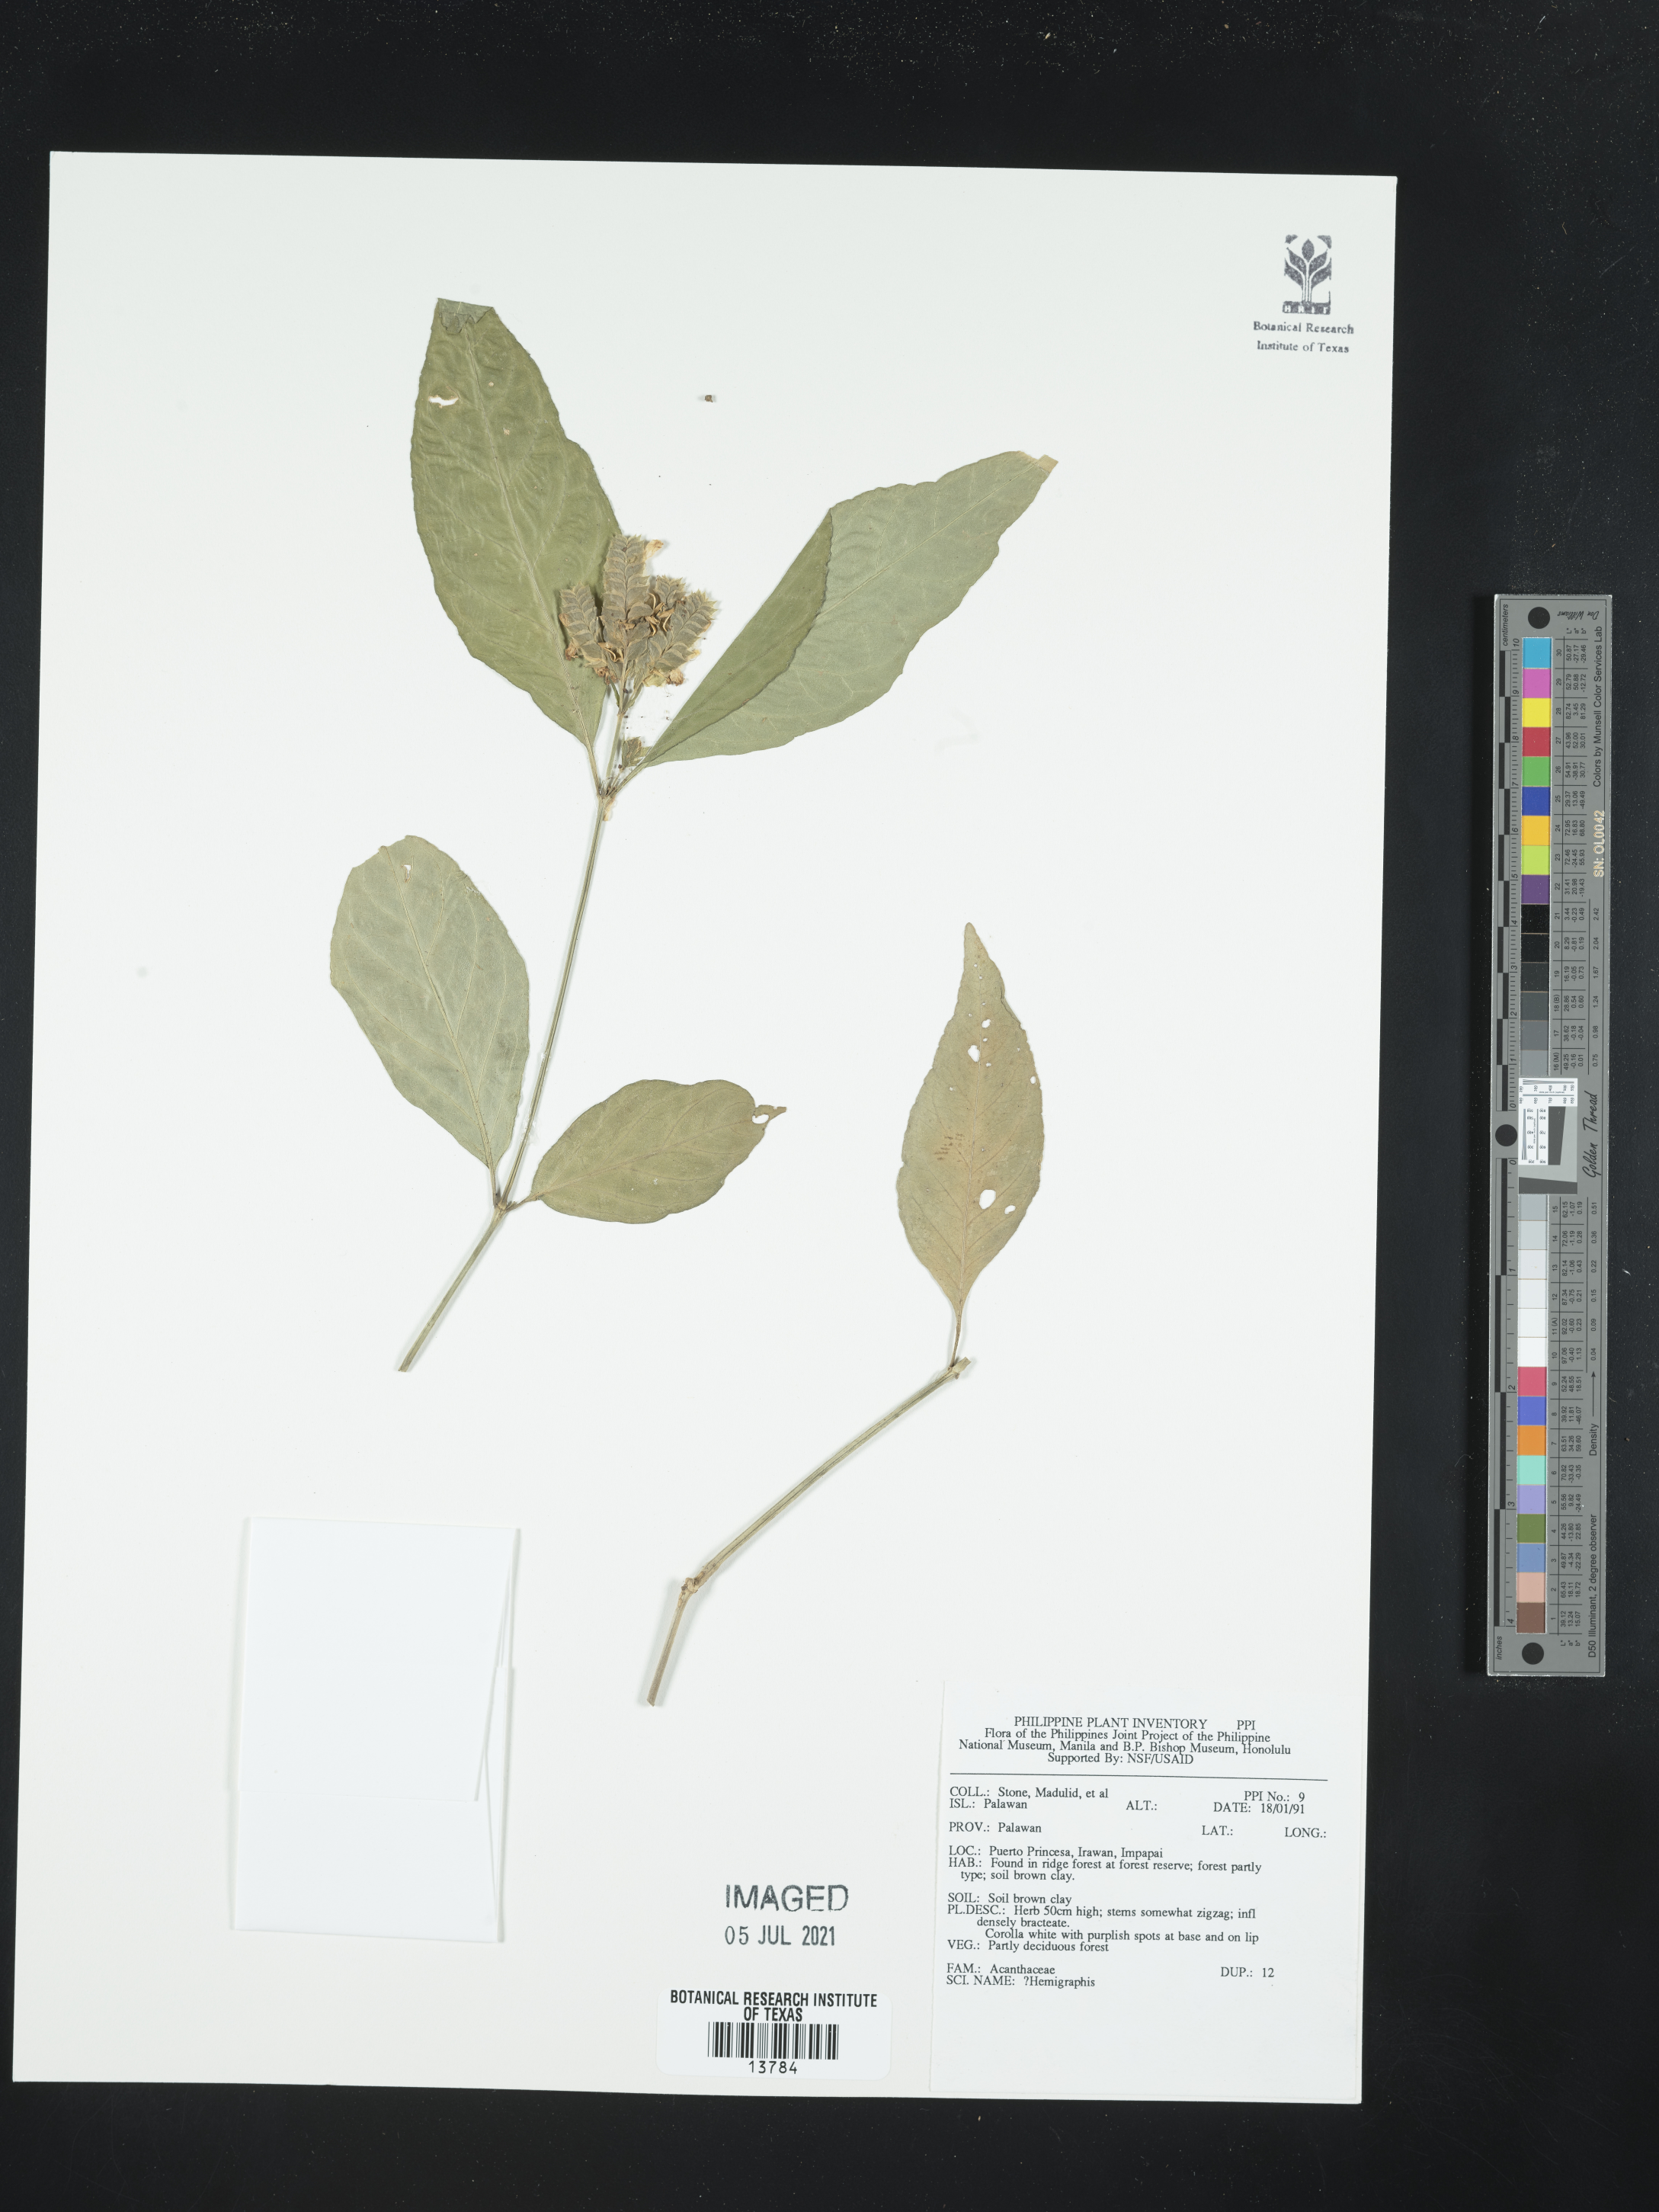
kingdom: Plantae
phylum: Tracheophyta
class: Magnoliopsida
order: Lamiales
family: Acanthaceae
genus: Hemigraphis
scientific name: Hemigraphis
